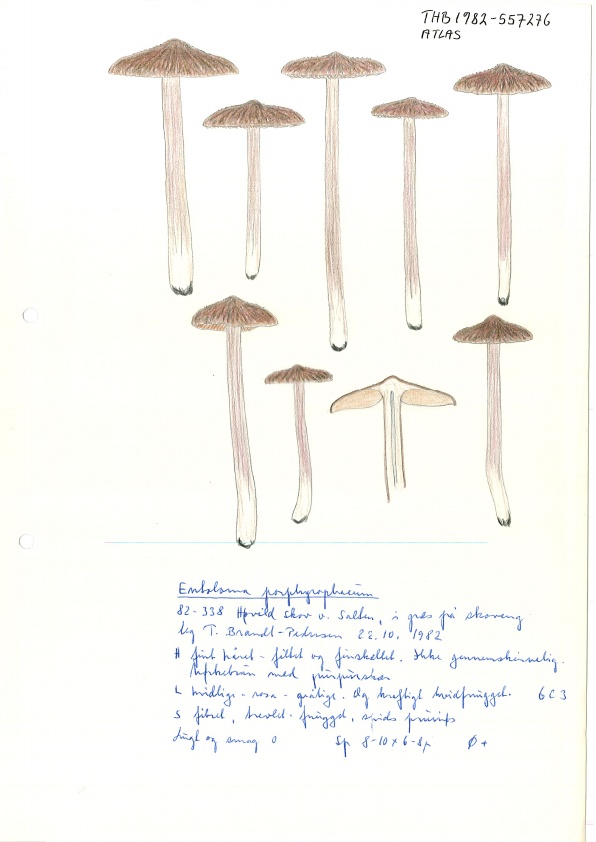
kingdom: Fungi
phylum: Basidiomycota
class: Agaricomycetes
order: Agaricales
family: Entolomataceae
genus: Entoloma
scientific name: Entoloma porphyrophaeum
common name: porfyrbrun rødblad
